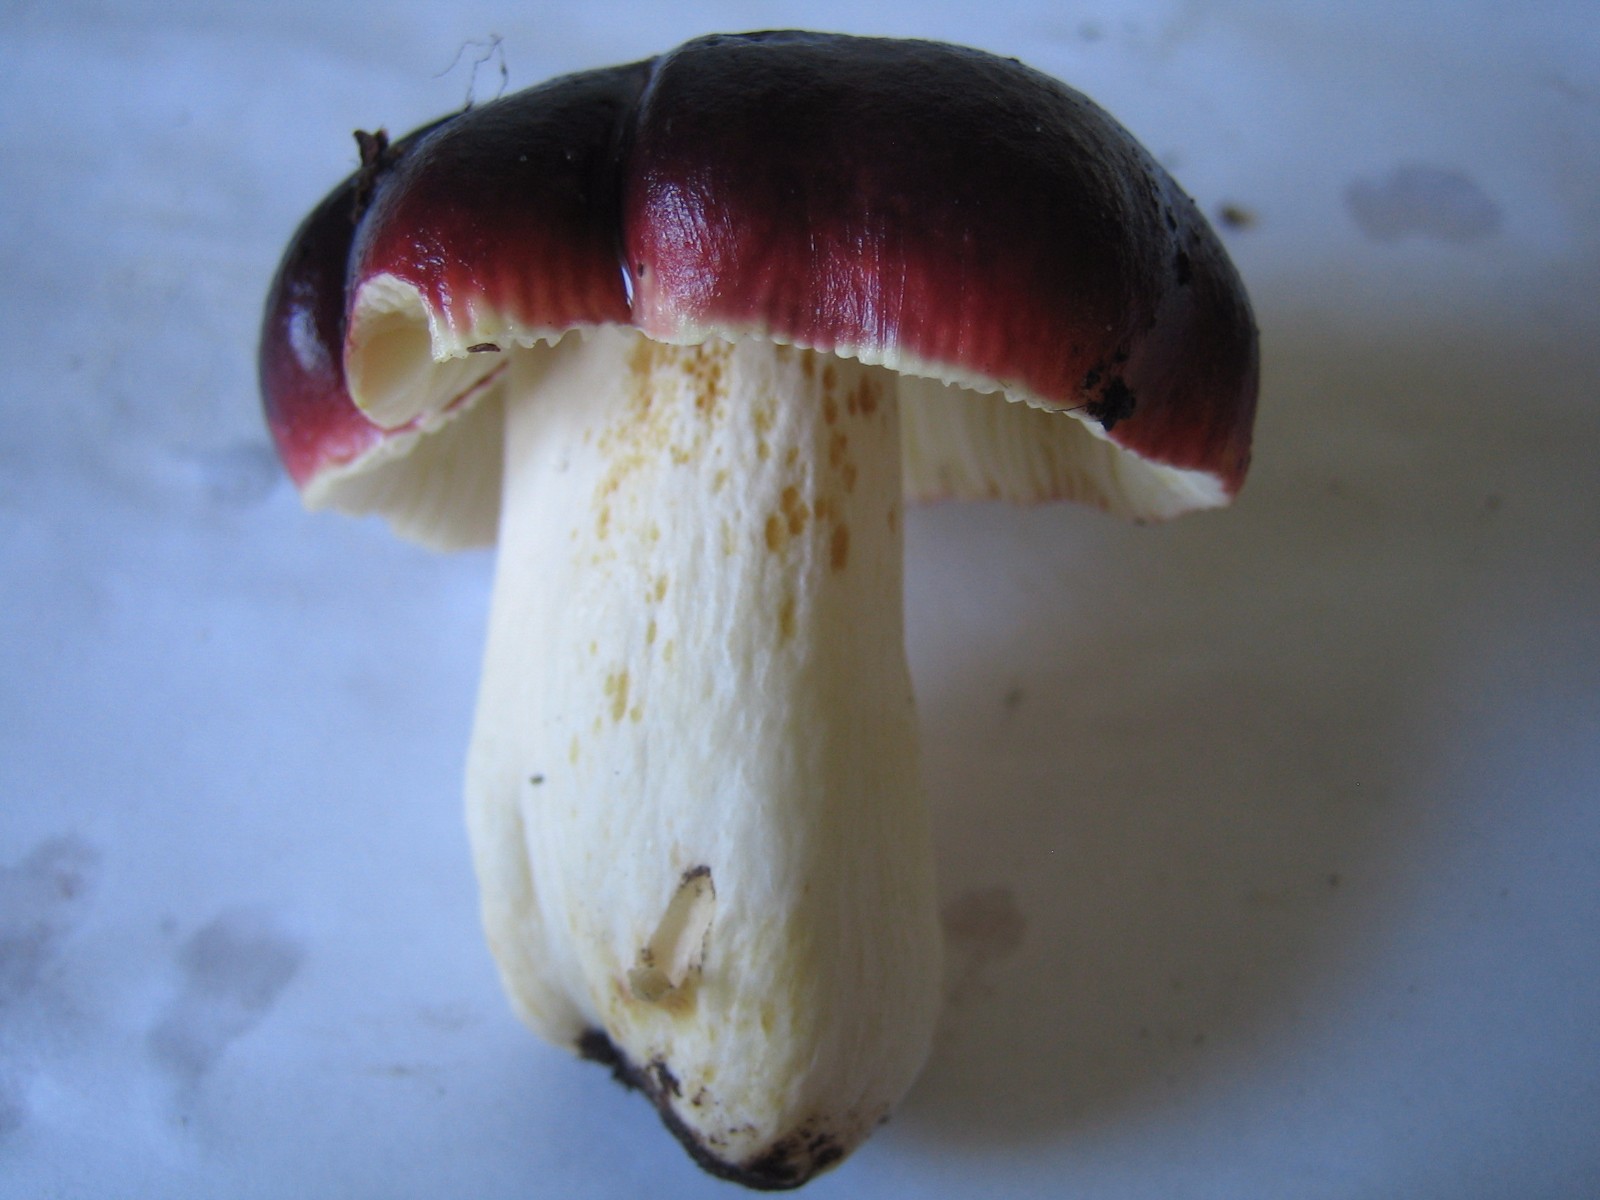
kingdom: Fungi
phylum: Basidiomycota
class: Agaricomycetes
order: Russulales
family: Russulaceae
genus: Russula
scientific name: Russula
